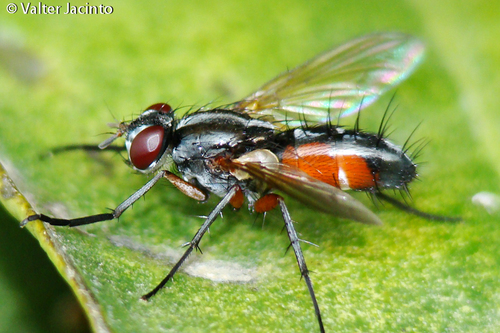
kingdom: Animalia
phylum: Arthropoda
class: Insecta
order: Diptera
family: Tachinidae
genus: Mintho
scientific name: Mintho rufiventris
